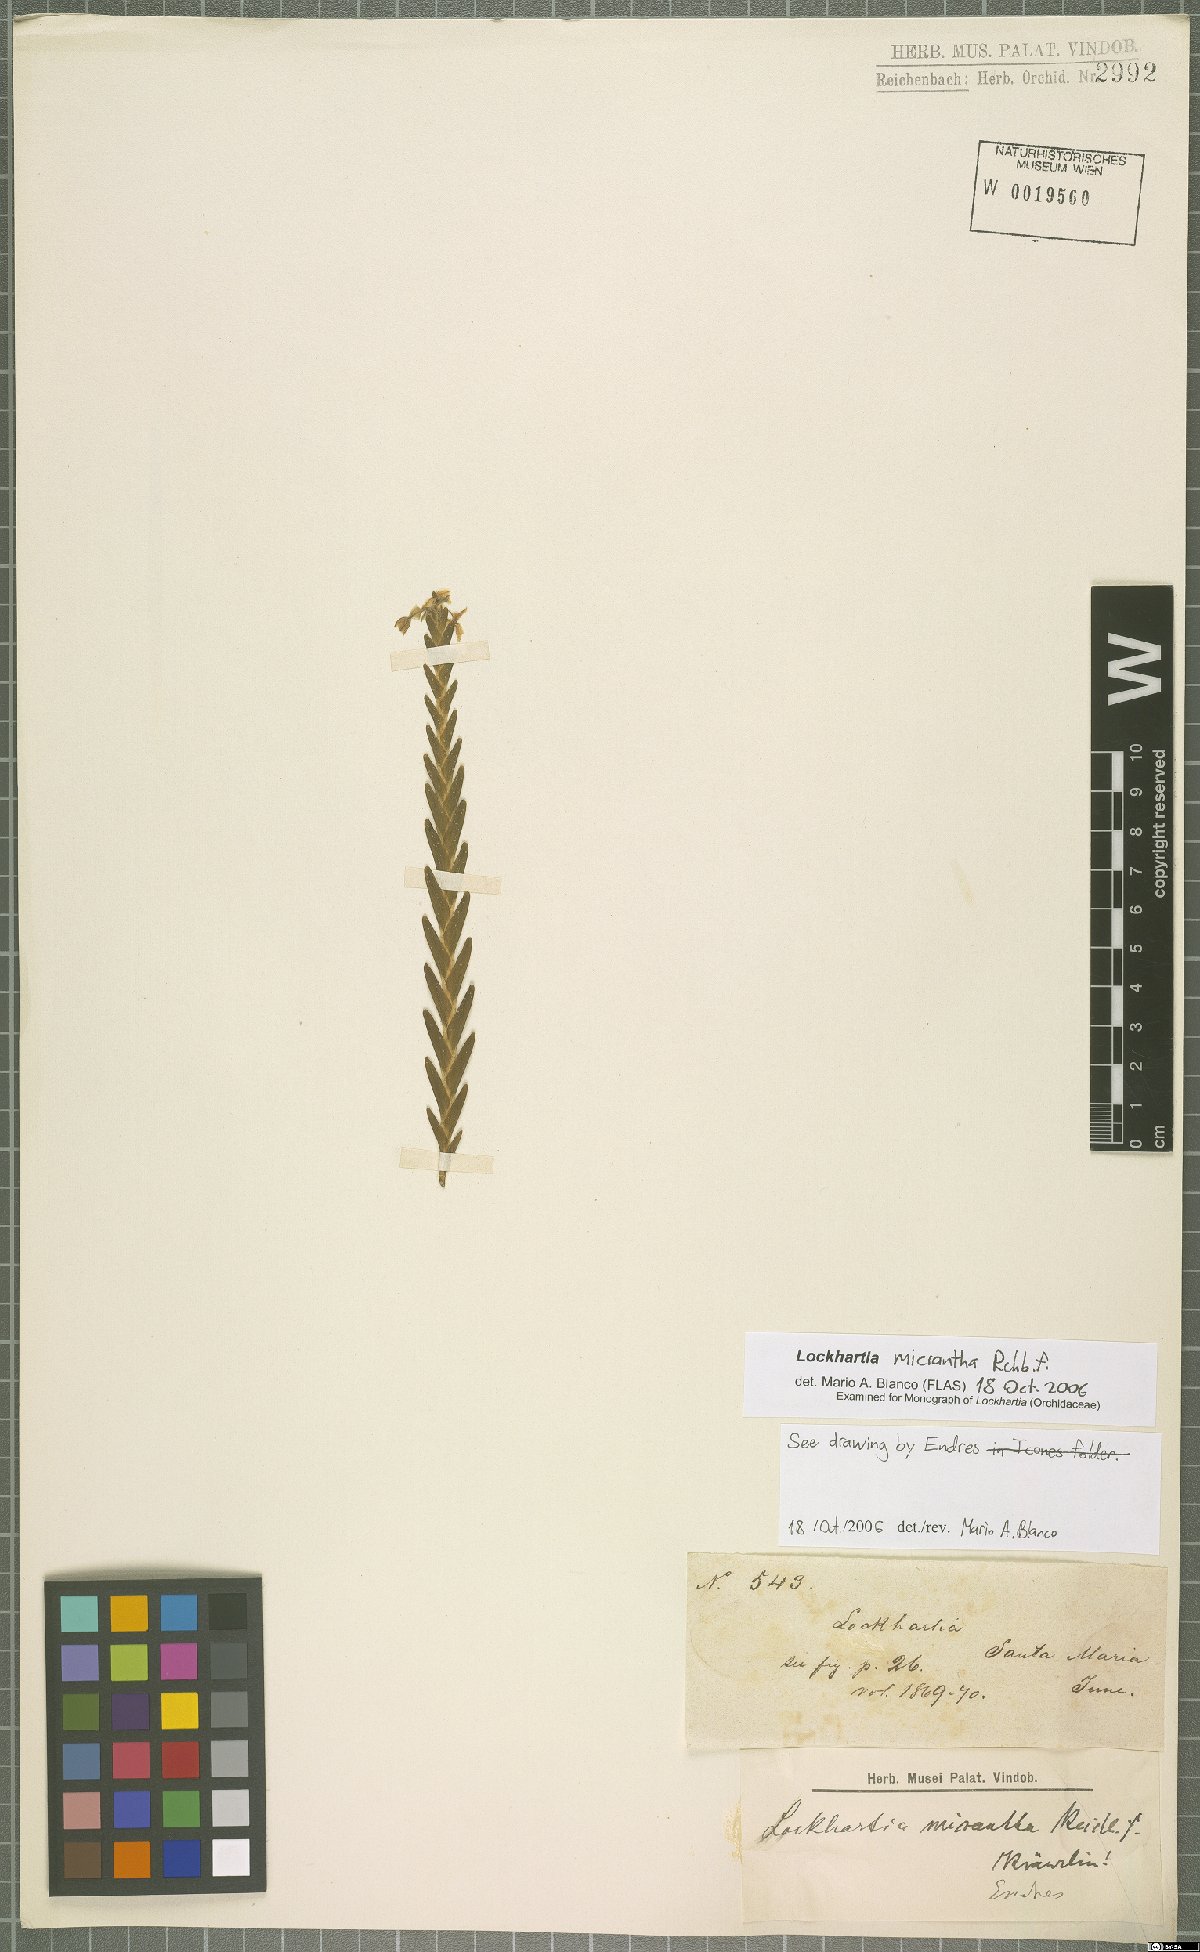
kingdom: Plantae
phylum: Tracheophyta
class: Liliopsida
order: Asparagales
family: Orchidaceae
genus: Lockhartia
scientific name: Lockhartia micrantha
